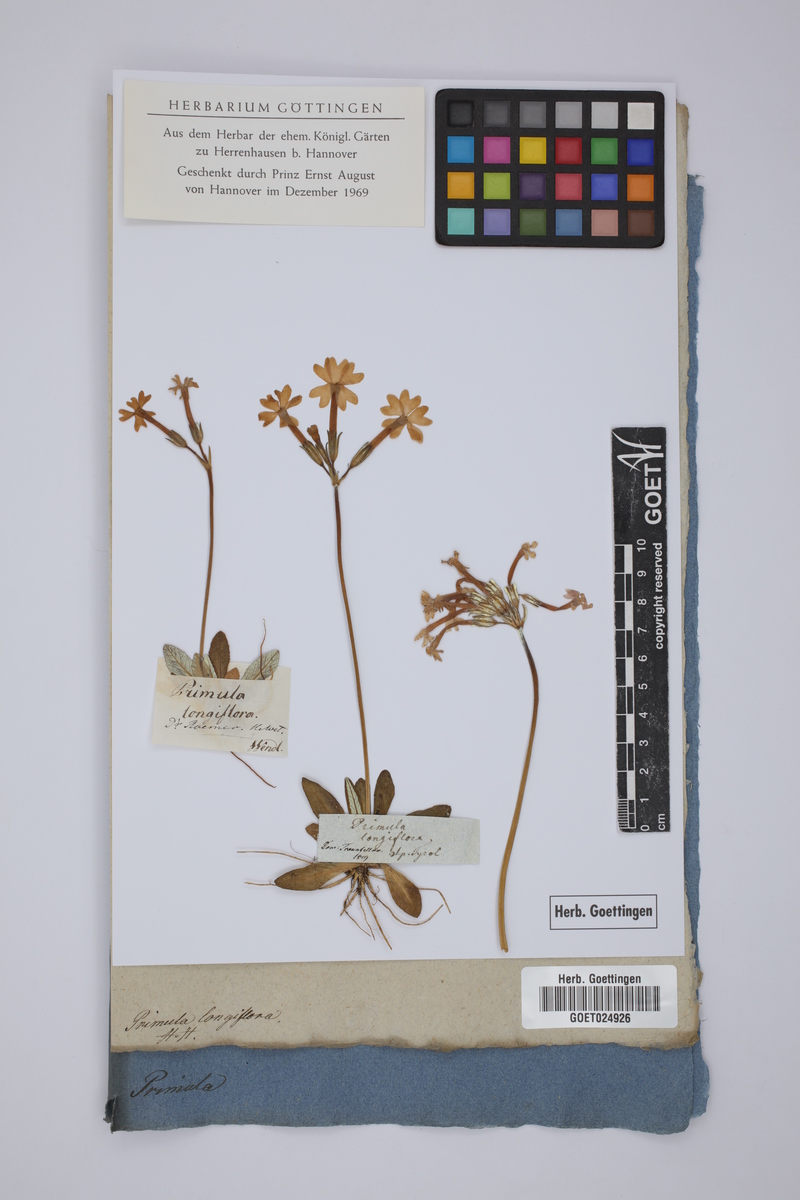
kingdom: Plantae
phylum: Tracheophyta
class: Magnoliopsida
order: Ericales
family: Primulaceae
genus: Primula
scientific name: Primula halleri
